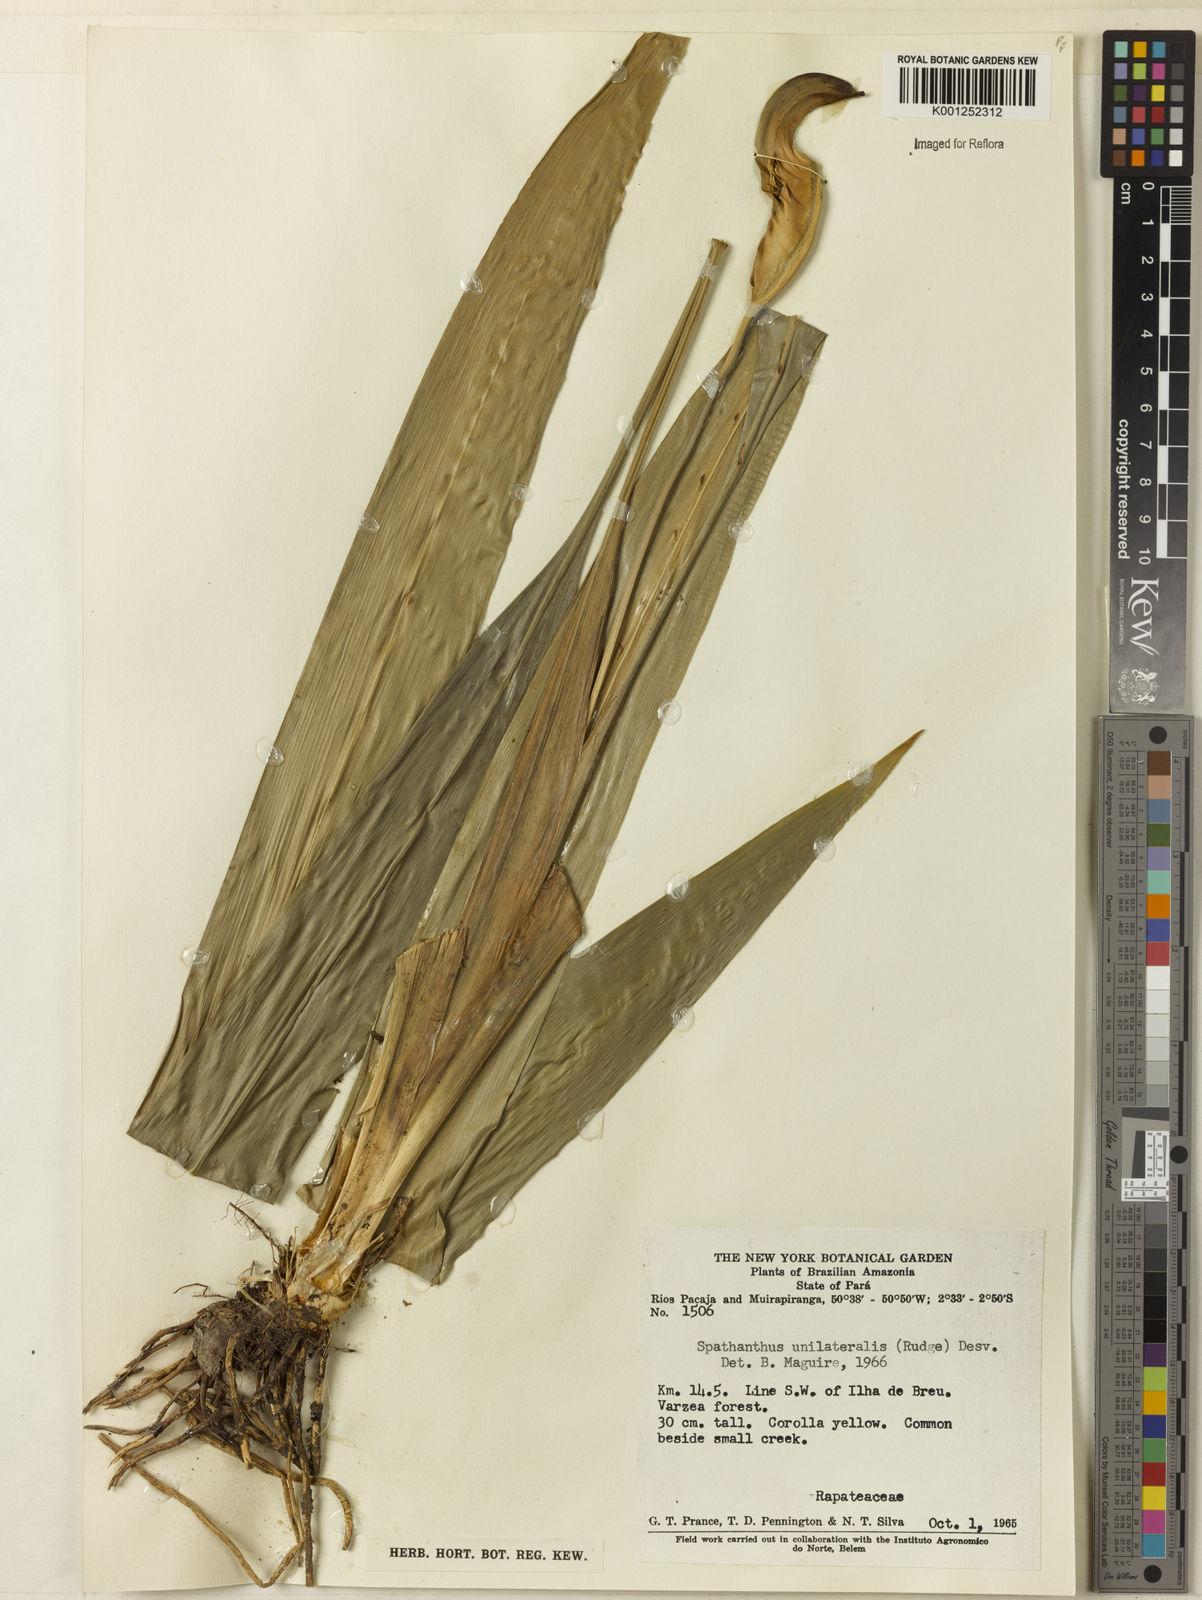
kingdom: Plantae
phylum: Tracheophyta
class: Liliopsida
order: Poales
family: Rapateaceae
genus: Spathanthus
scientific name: Spathanthus unilateralis
